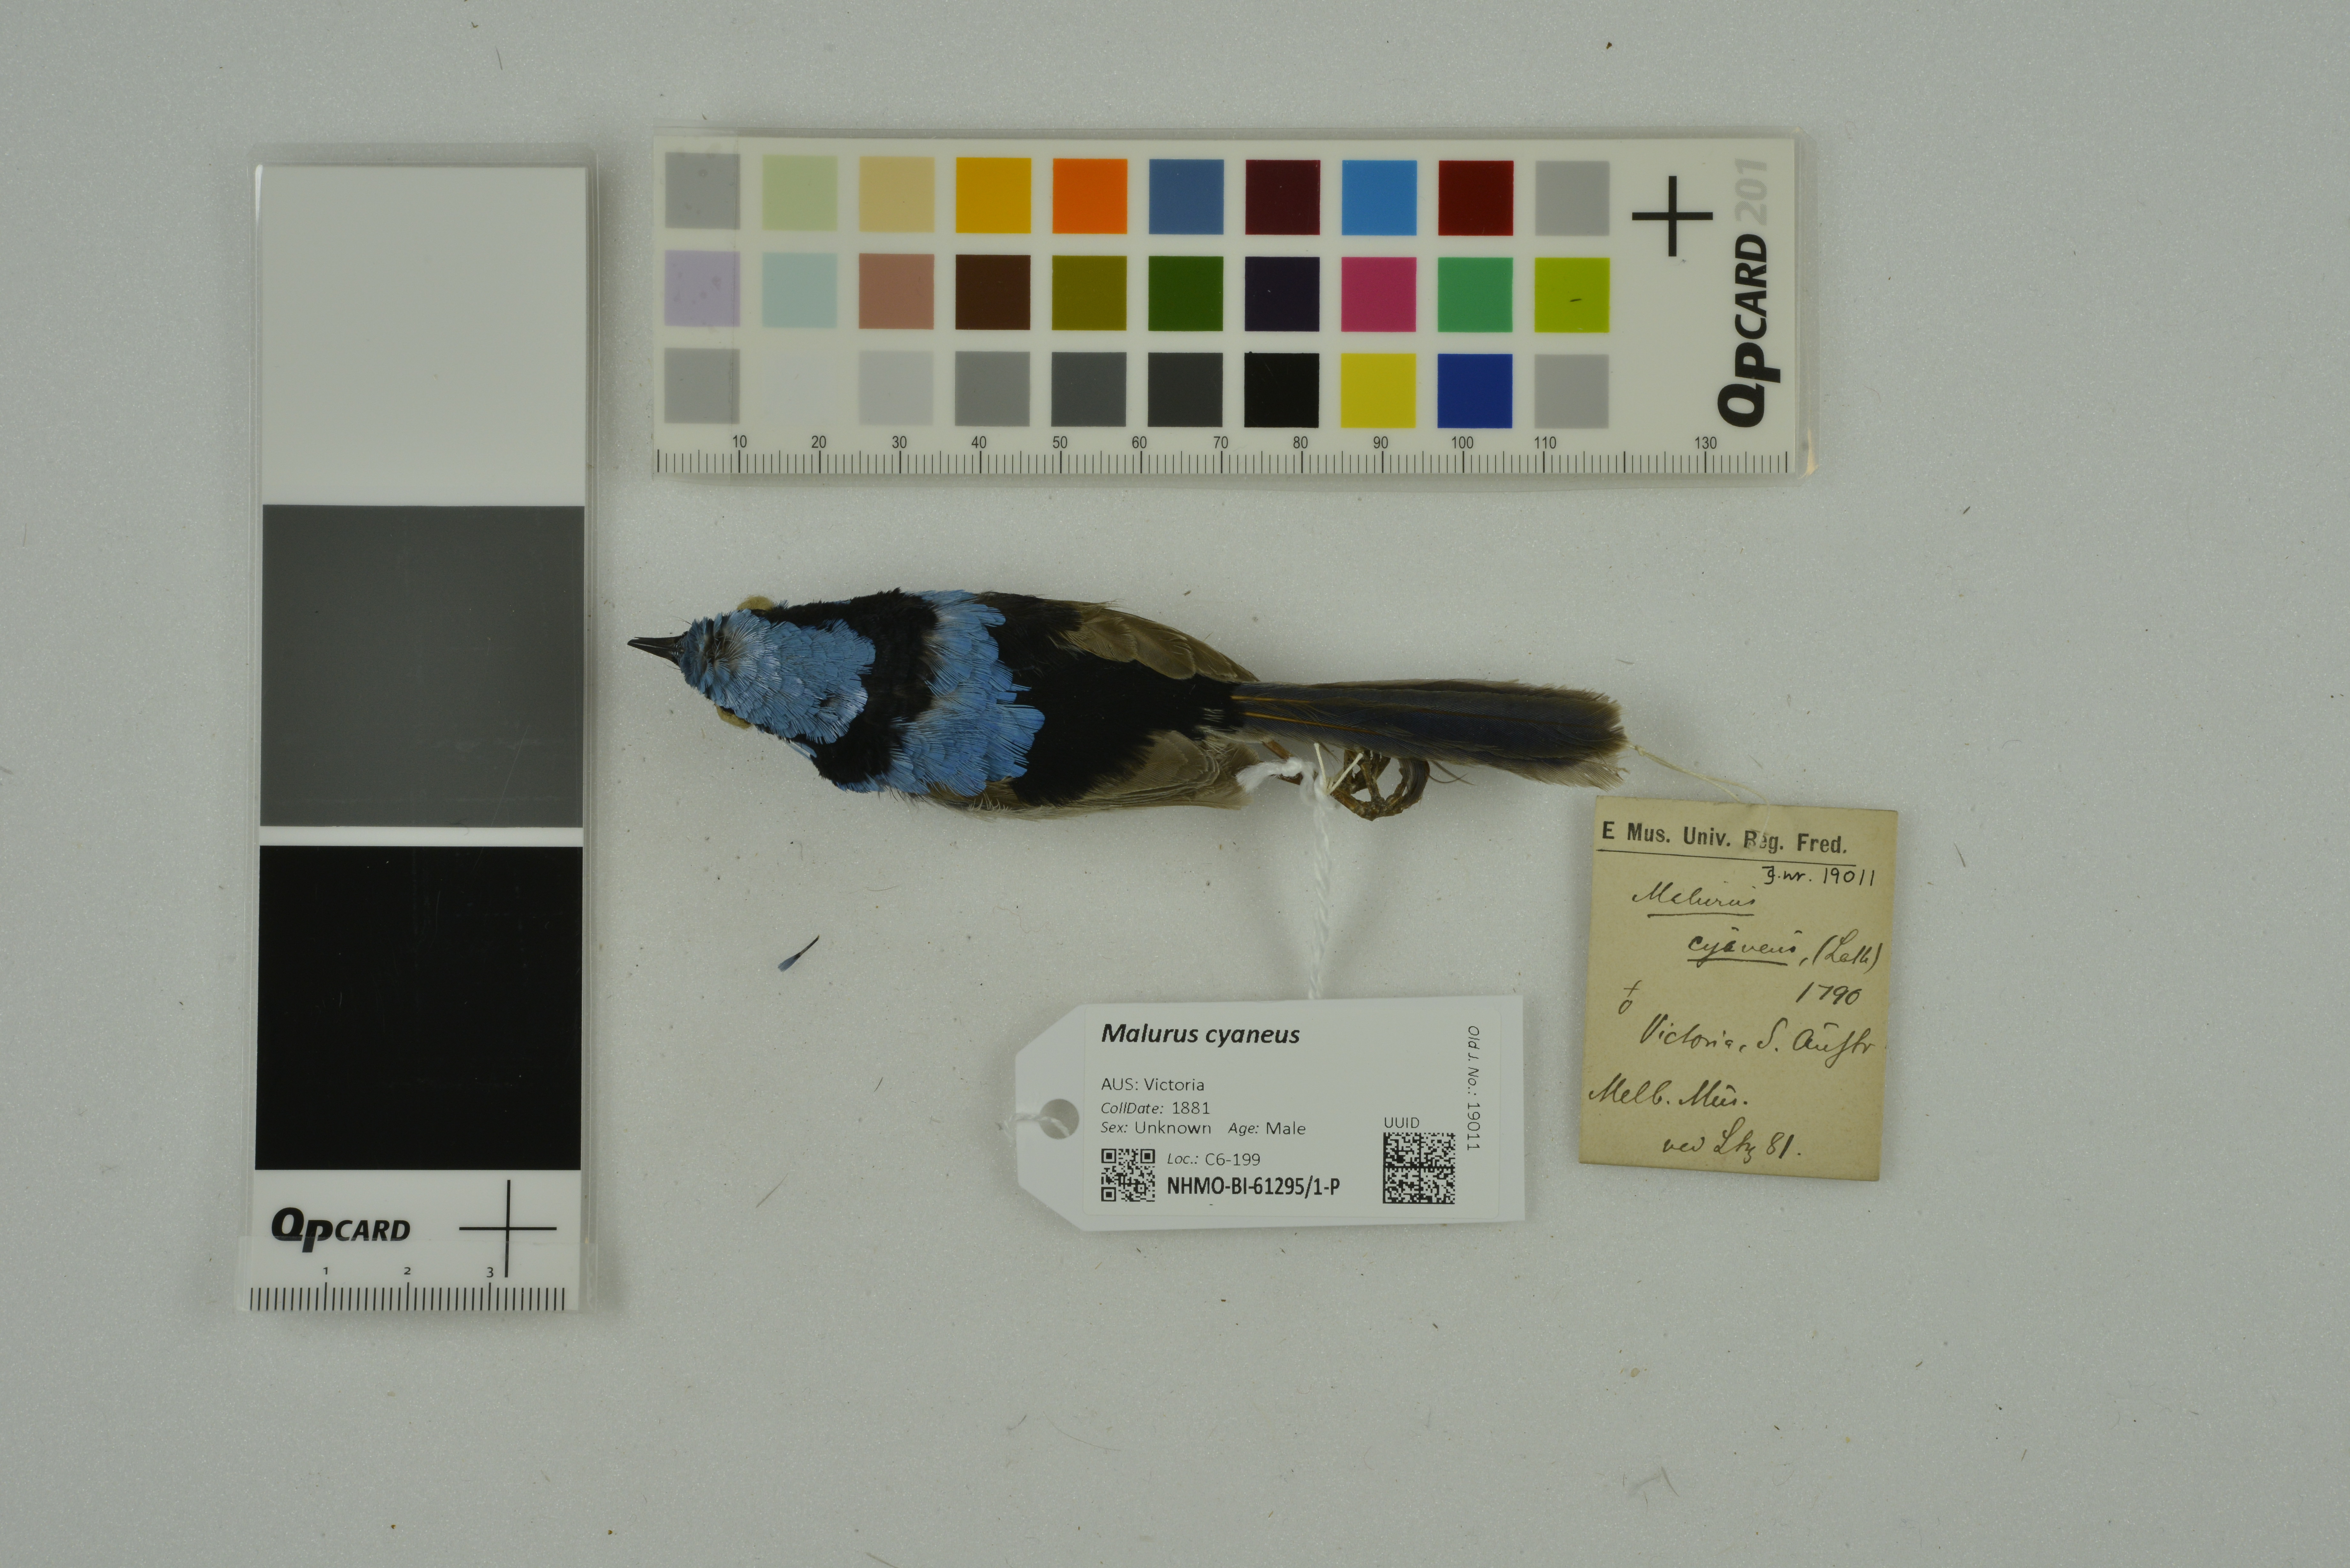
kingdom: Animalia
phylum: Chordata
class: Aves
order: Passeriformes
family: Maluridae
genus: Malurus
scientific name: Malurus cyaneus
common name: Superb fairywren
